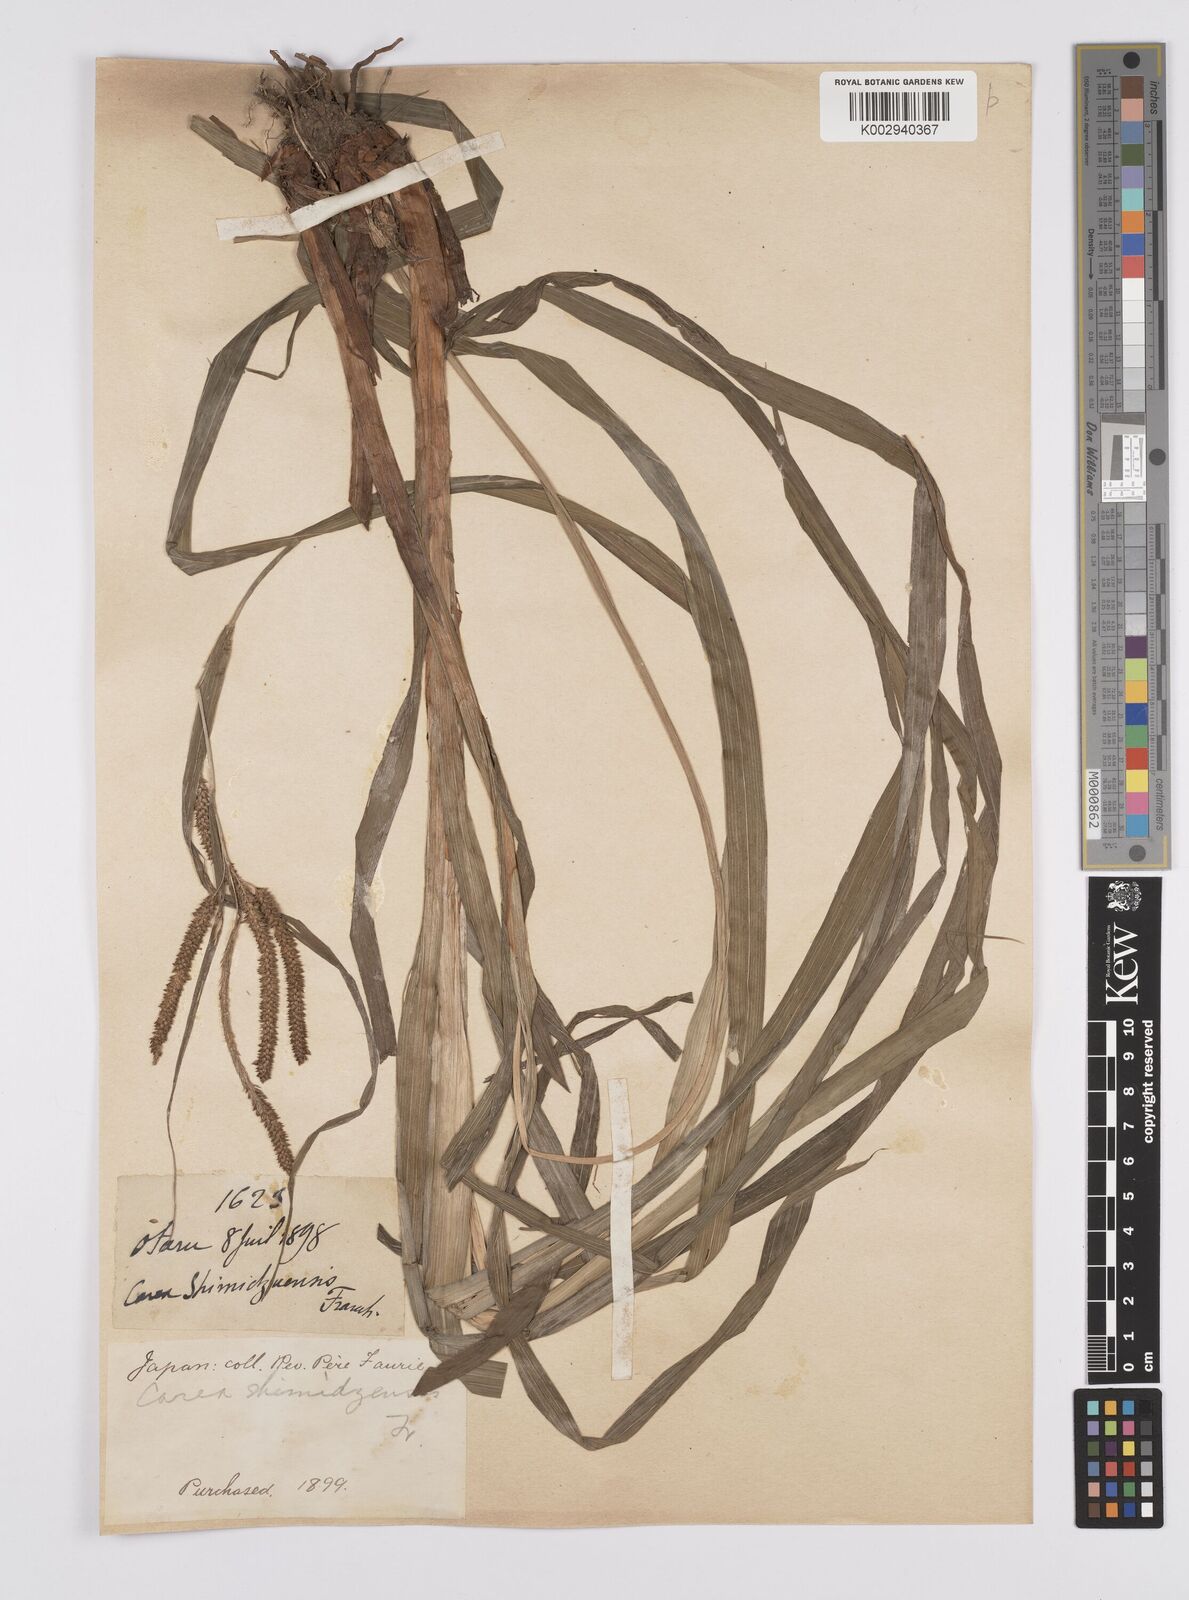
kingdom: Plantae
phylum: Tracheophyta
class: Liliopsida
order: Poales
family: Cyperaceae
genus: Carex
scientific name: Carex shimidzensis
